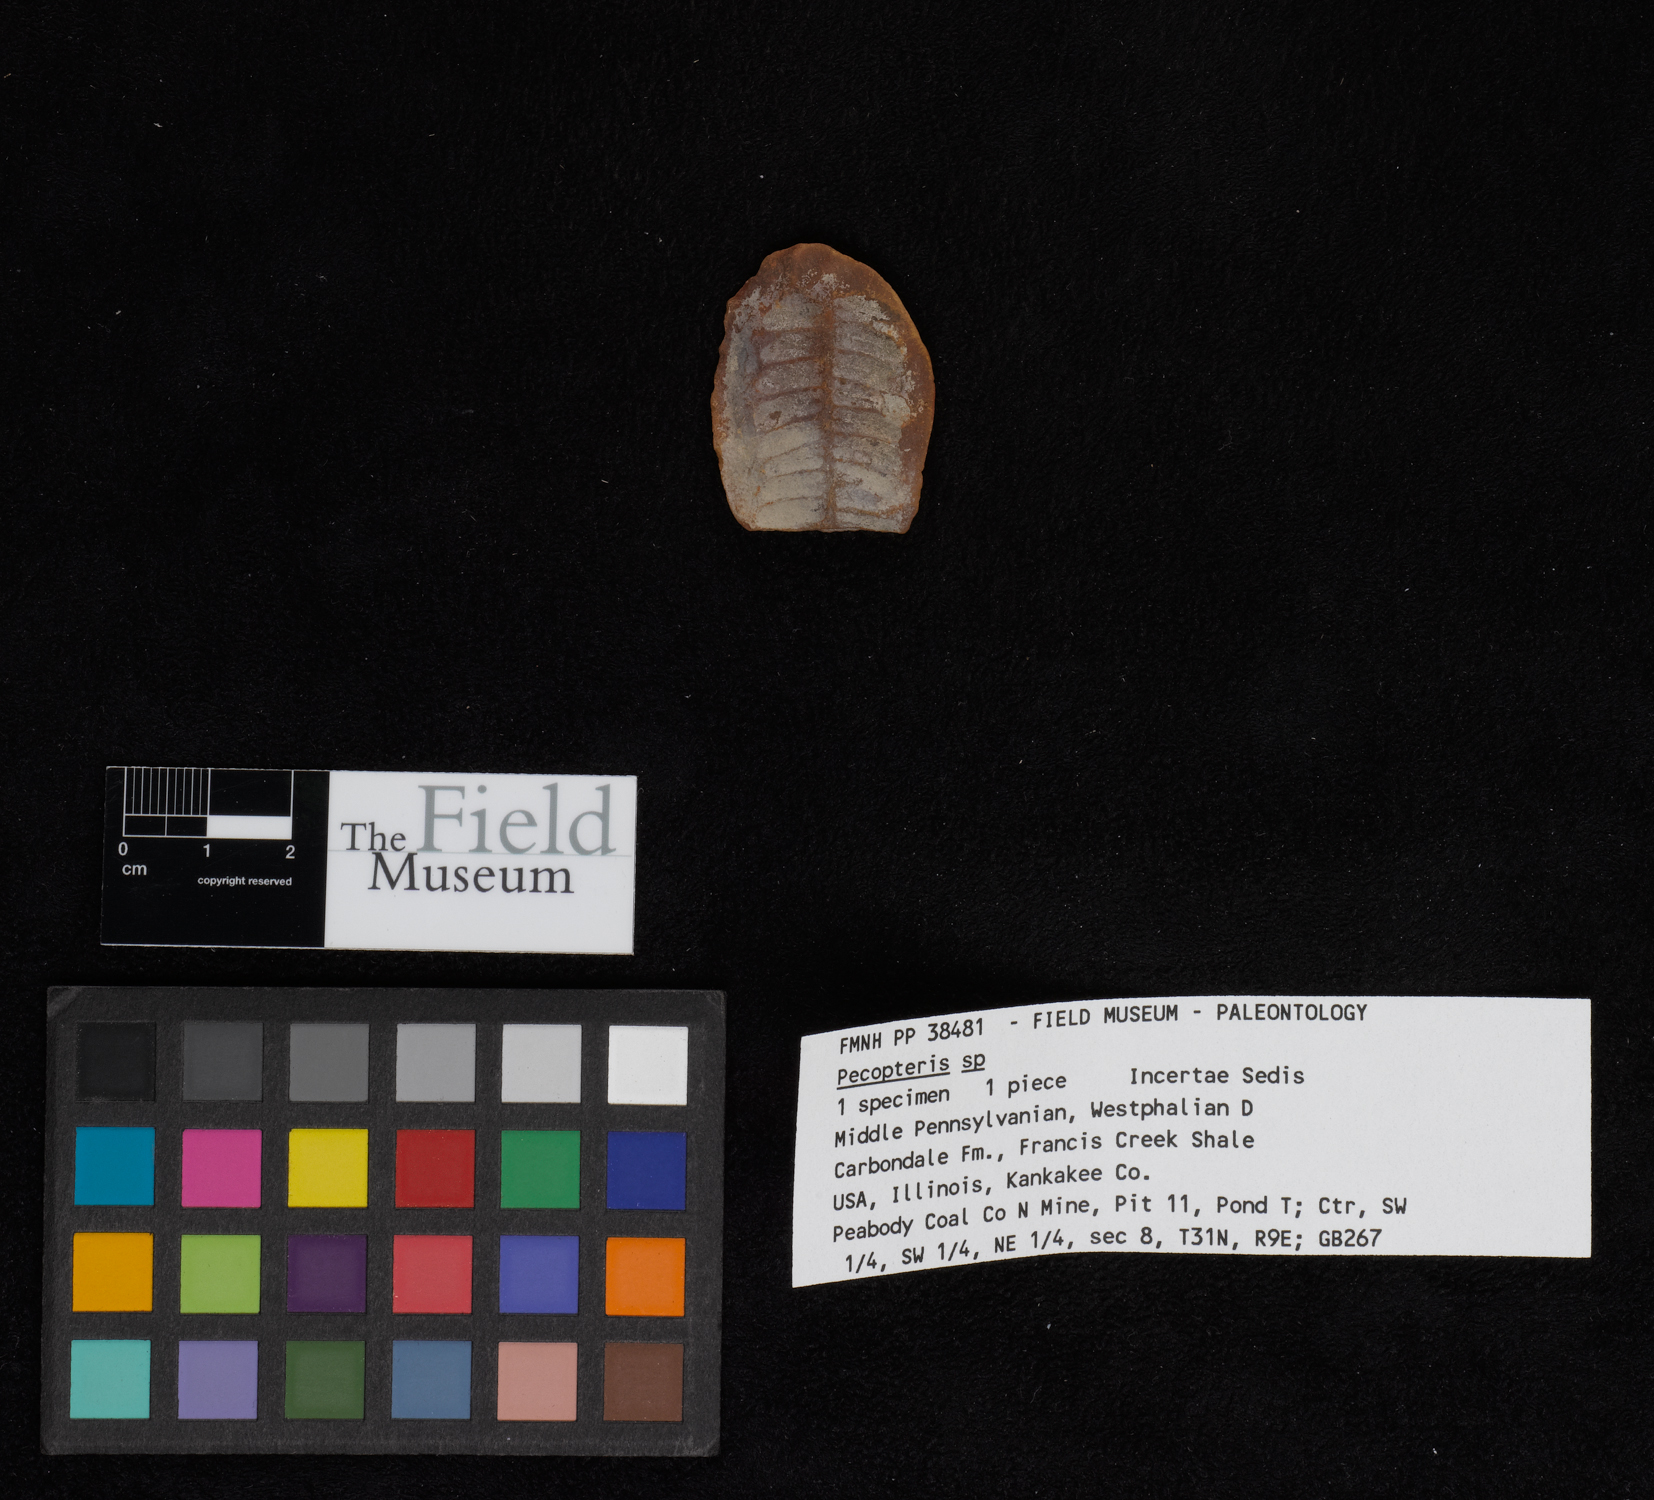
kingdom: Plantae
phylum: Tracheophyta
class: Polypodiopsida
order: Marattiales
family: Asterothecaceae
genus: Pecopteris
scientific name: Pecopteris
